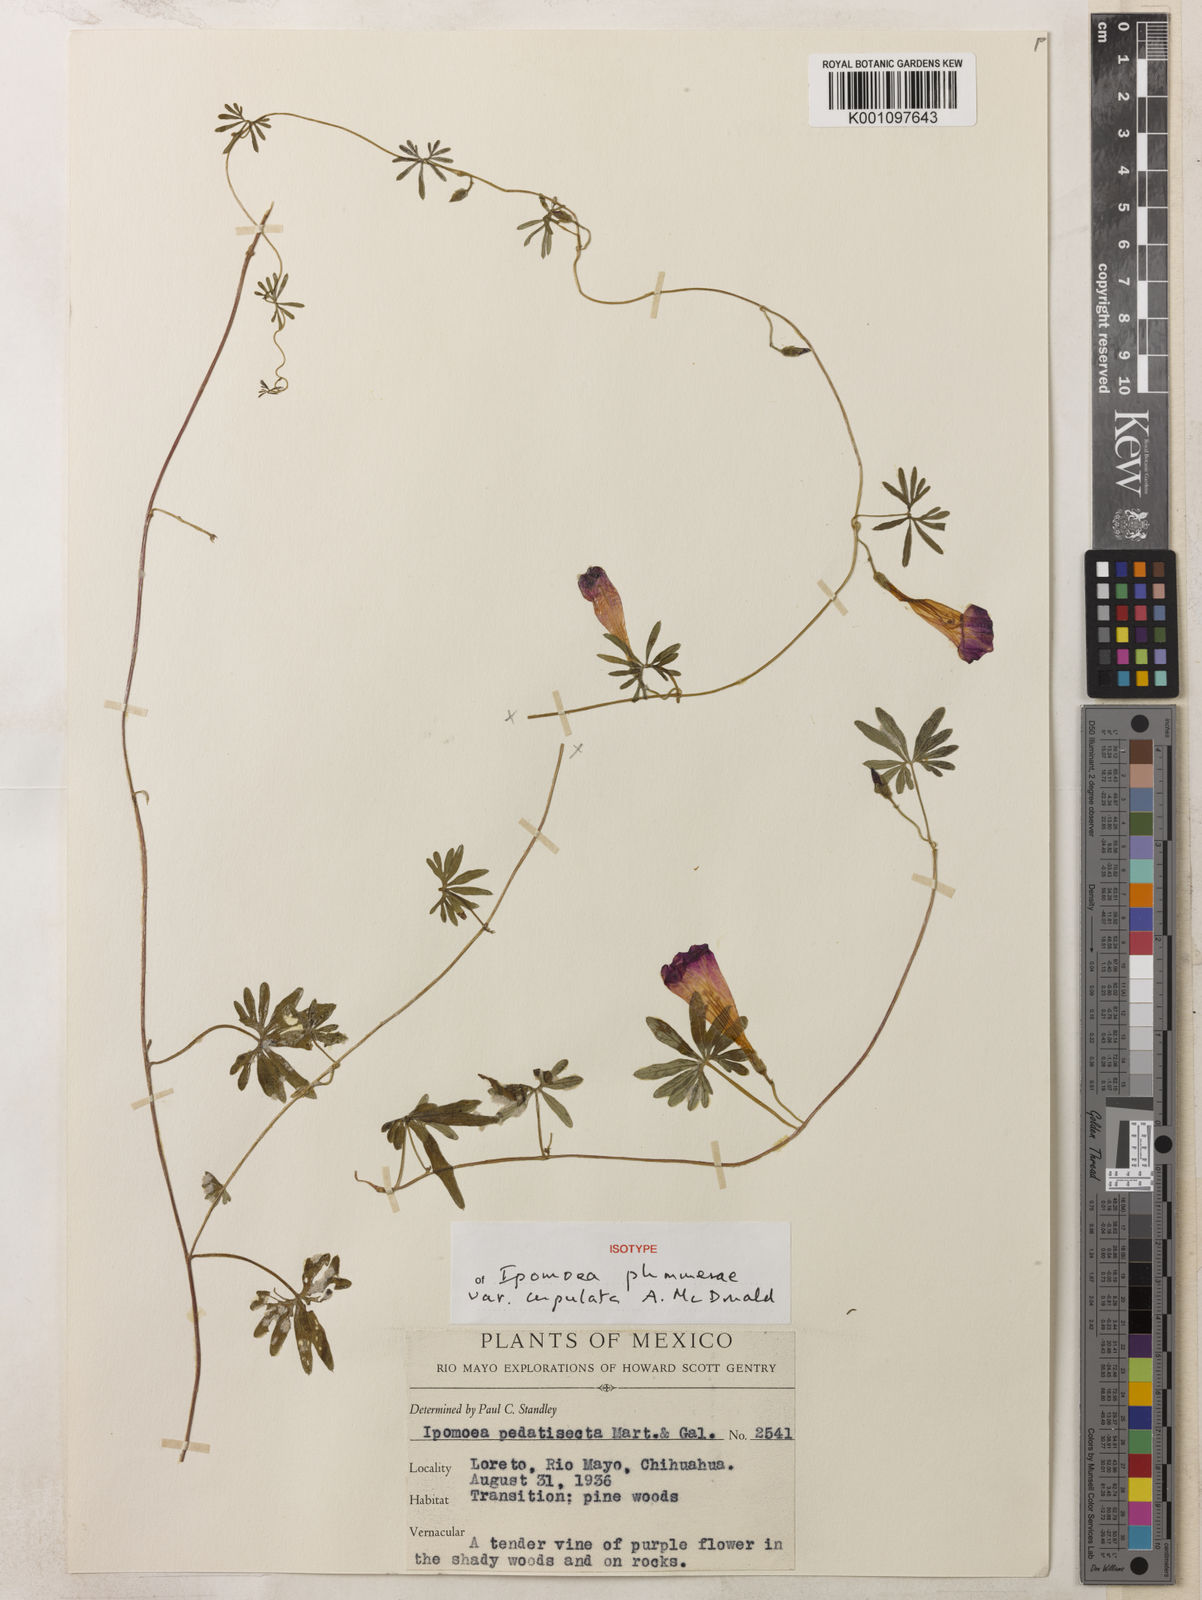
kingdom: Plantae
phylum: Tracheophyta
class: Magnoliopsida
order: Solanales
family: Convolvulaceae
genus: Ipomoea
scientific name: Ipomoea plummerae
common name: Plummer's morning-glory
